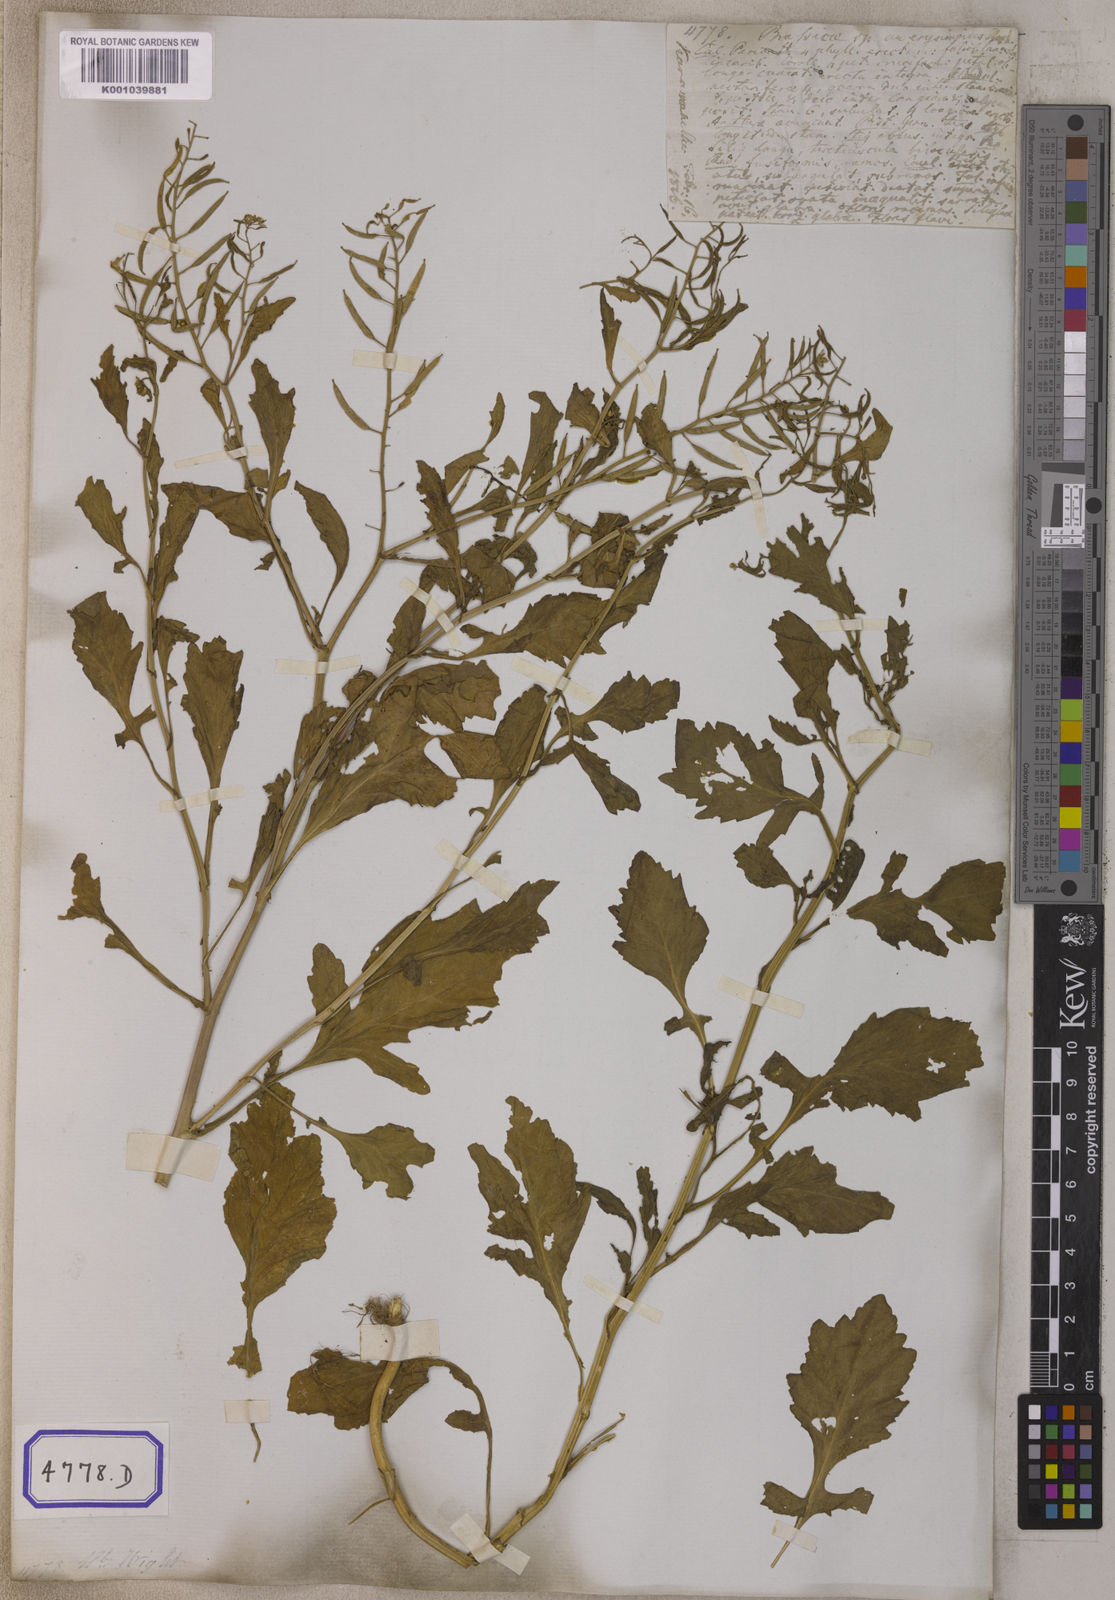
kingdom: Plantae
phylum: Tracheophyta
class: Magnoliopsida
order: Brassicales
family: Brassicaceae
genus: Nasturtium
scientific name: Nasturtium
